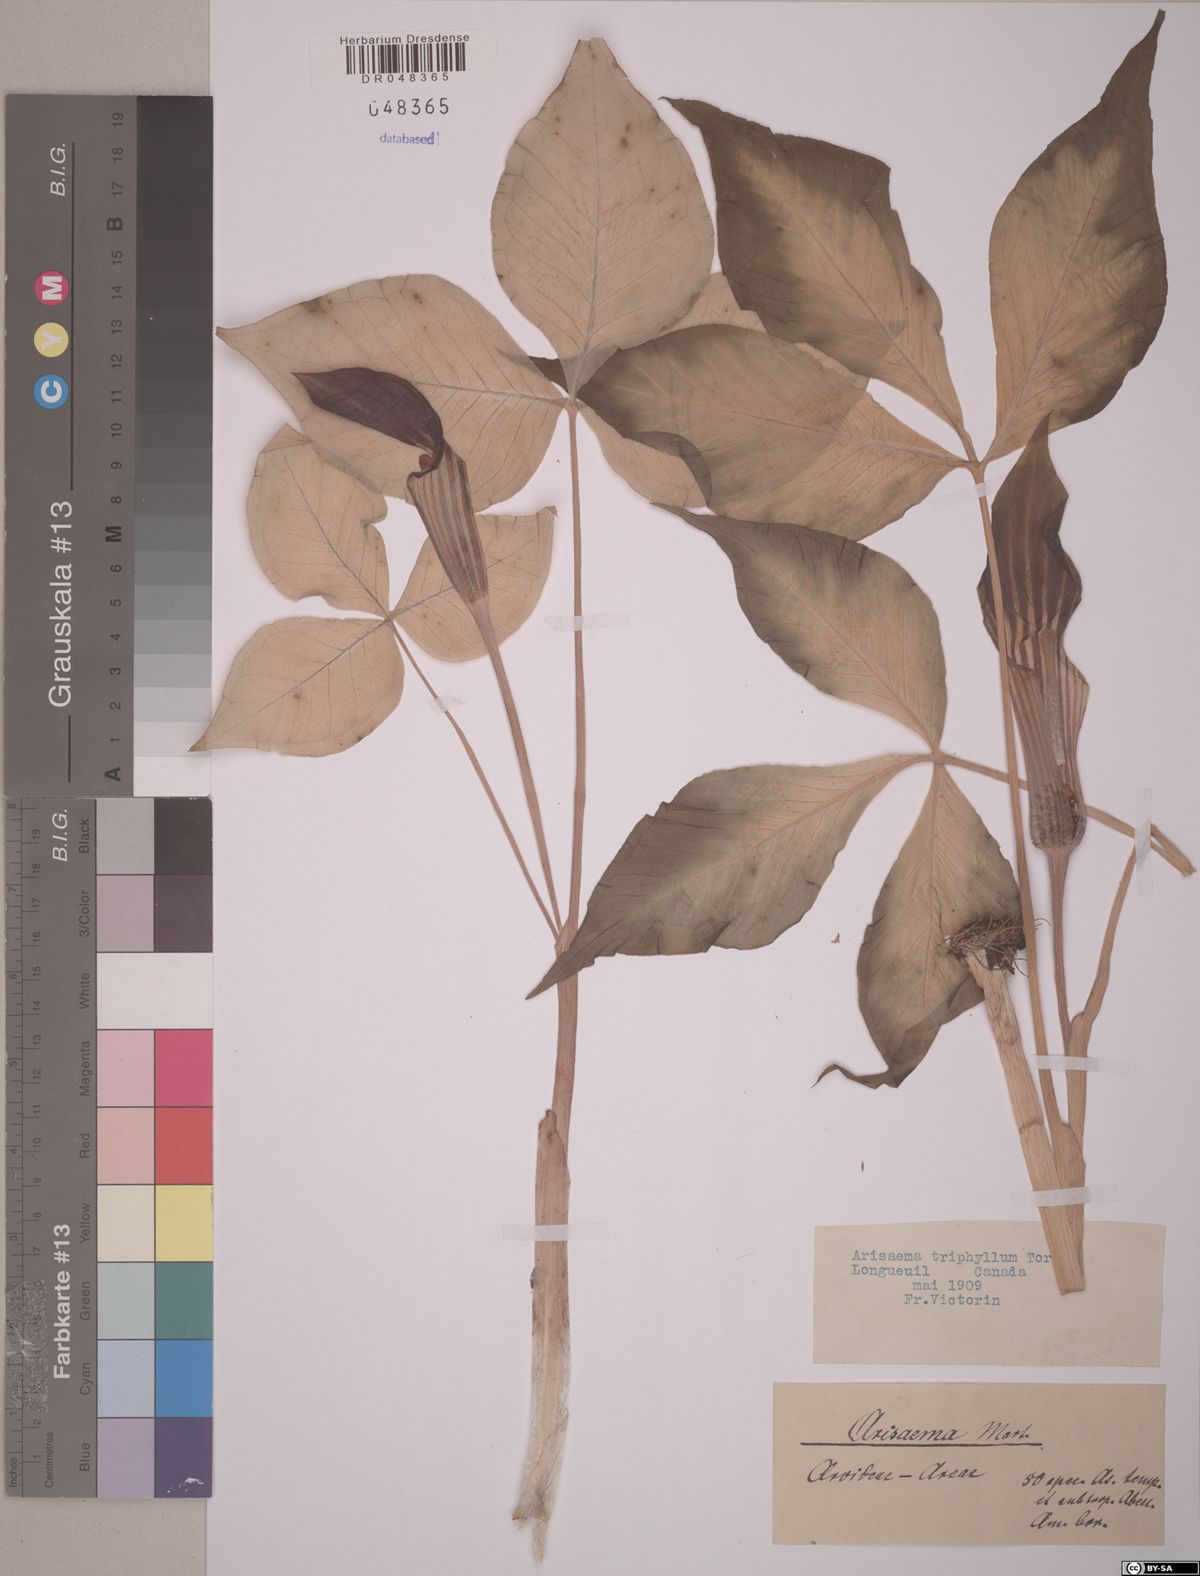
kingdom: Plantae
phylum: Tracheophyta
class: Liliopsida
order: Alismatales
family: Araceae
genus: Arisaema
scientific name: Arisaema triphyllum
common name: Jack-in-the-pulpit
